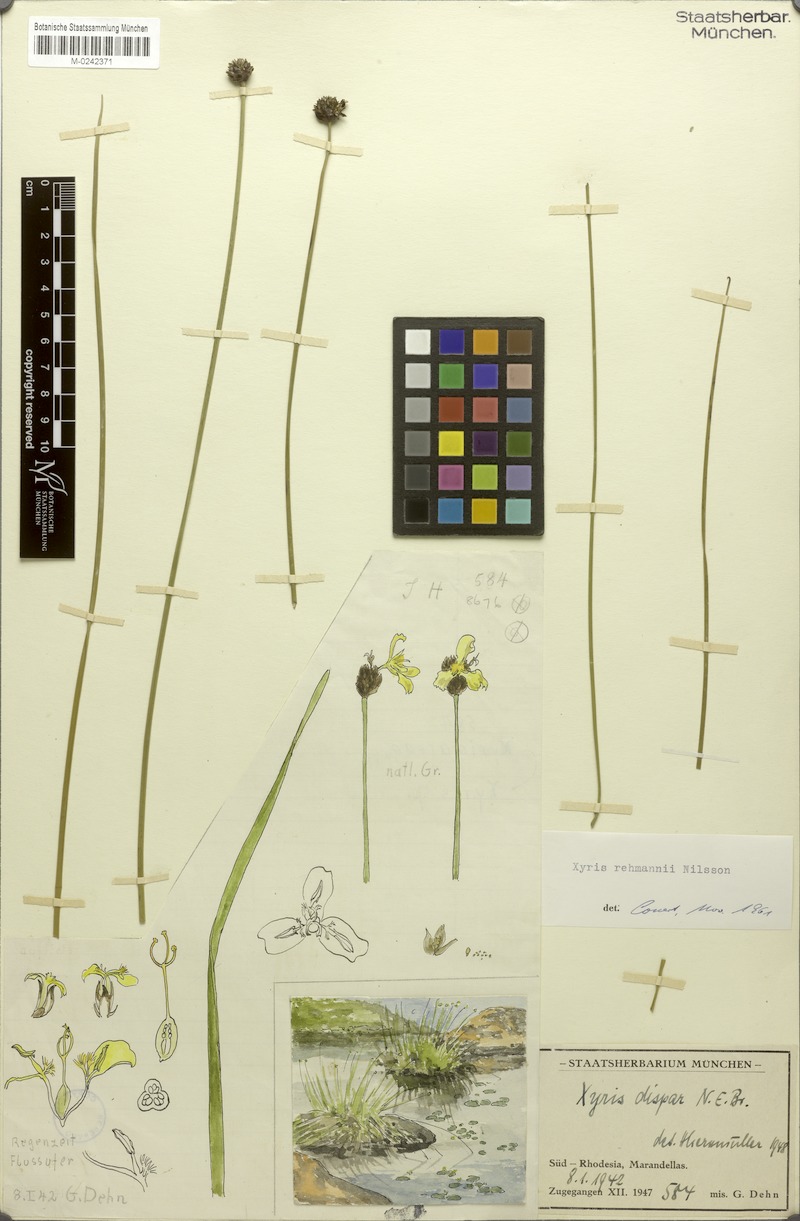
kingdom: Plantae
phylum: Tracheophyta
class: Liliopsida
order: Poales
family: Xyridaceae
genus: Xyris
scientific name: Xyris rehmannii
